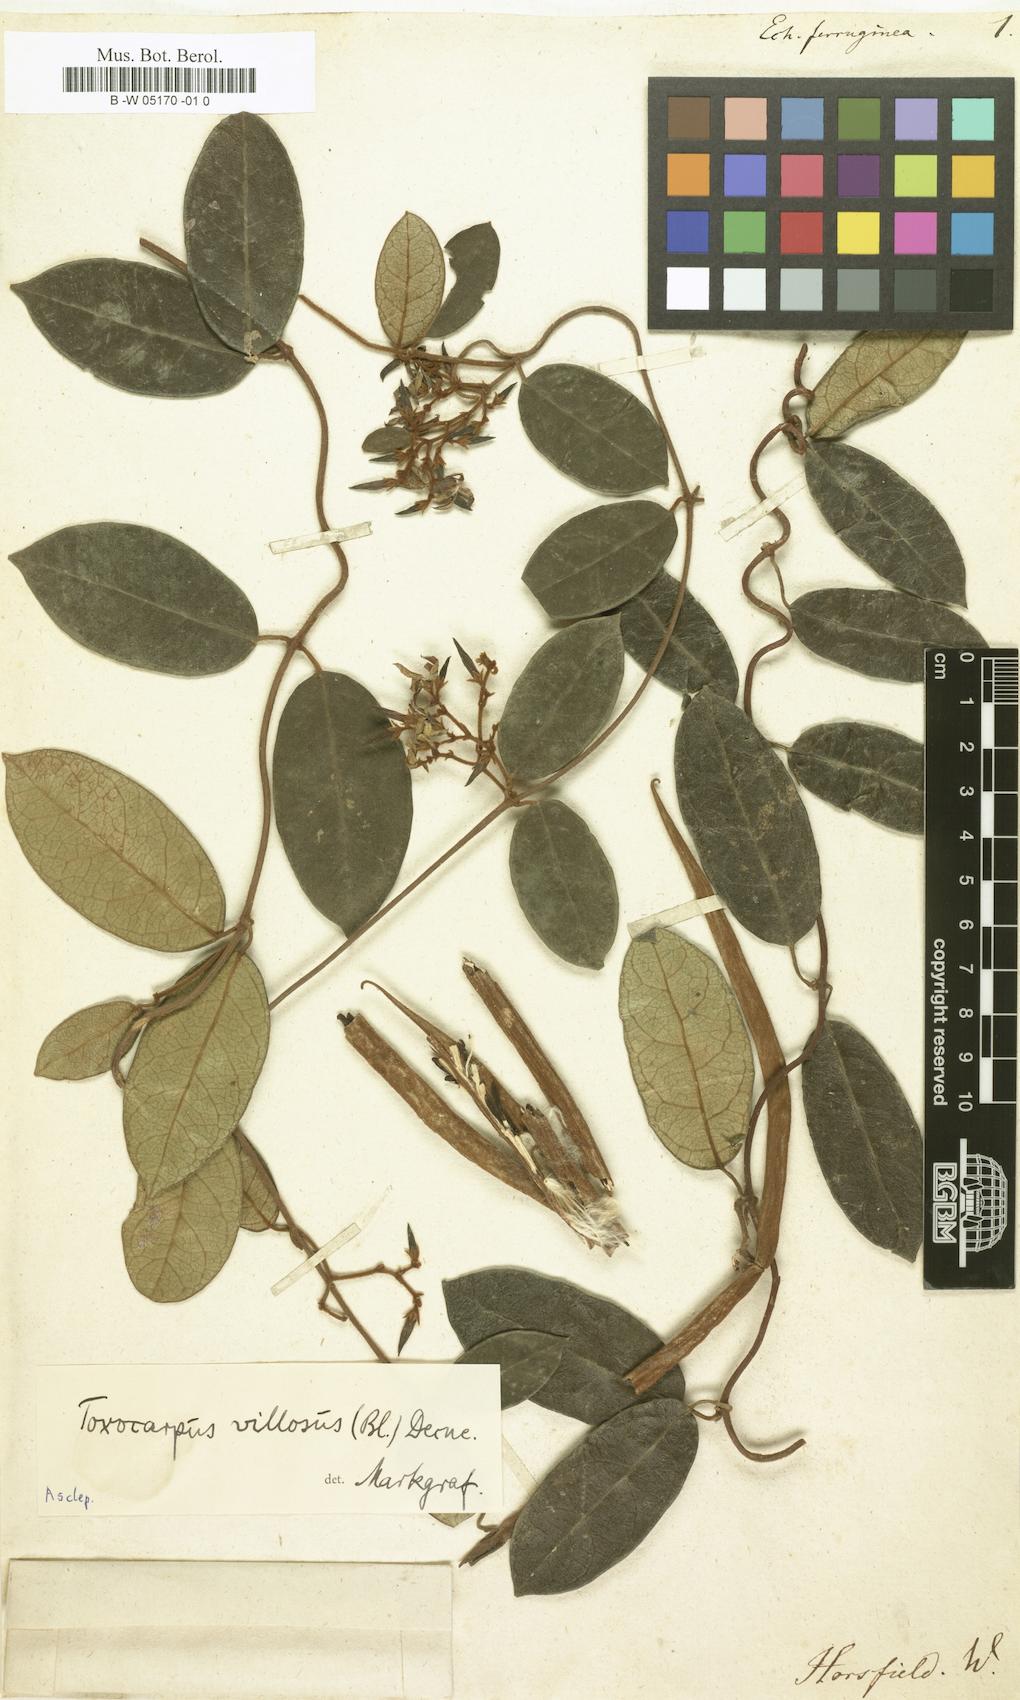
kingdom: Plantae
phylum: Tracheophyta
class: Magnoliopsida
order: Gentianales
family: Apocynaceae
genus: Ichnocarpus
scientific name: Ichnocarpus frutescens
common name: Ichnocarpus
